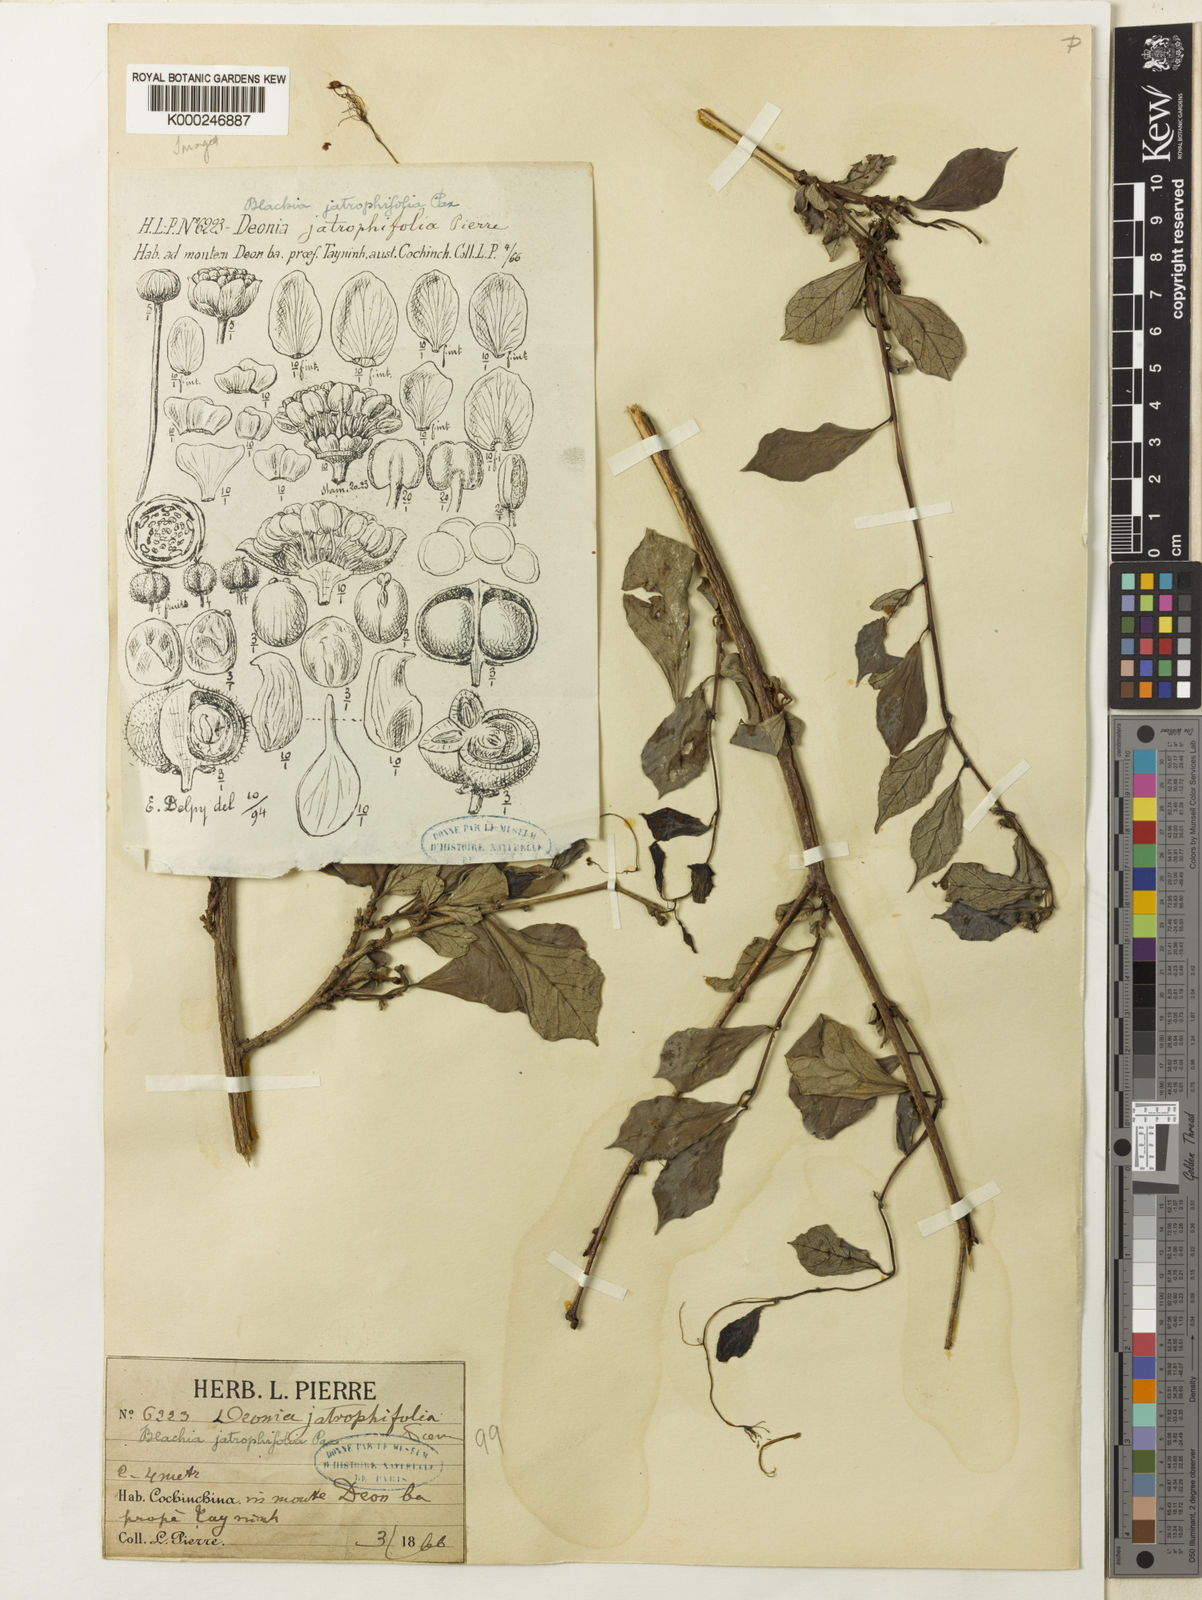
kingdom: Plantae
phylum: Tracheophyta
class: Magnoliopsida
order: Malpighiales
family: Euphorbiaceae
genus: Blachia
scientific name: Blachia jatrophifolia
